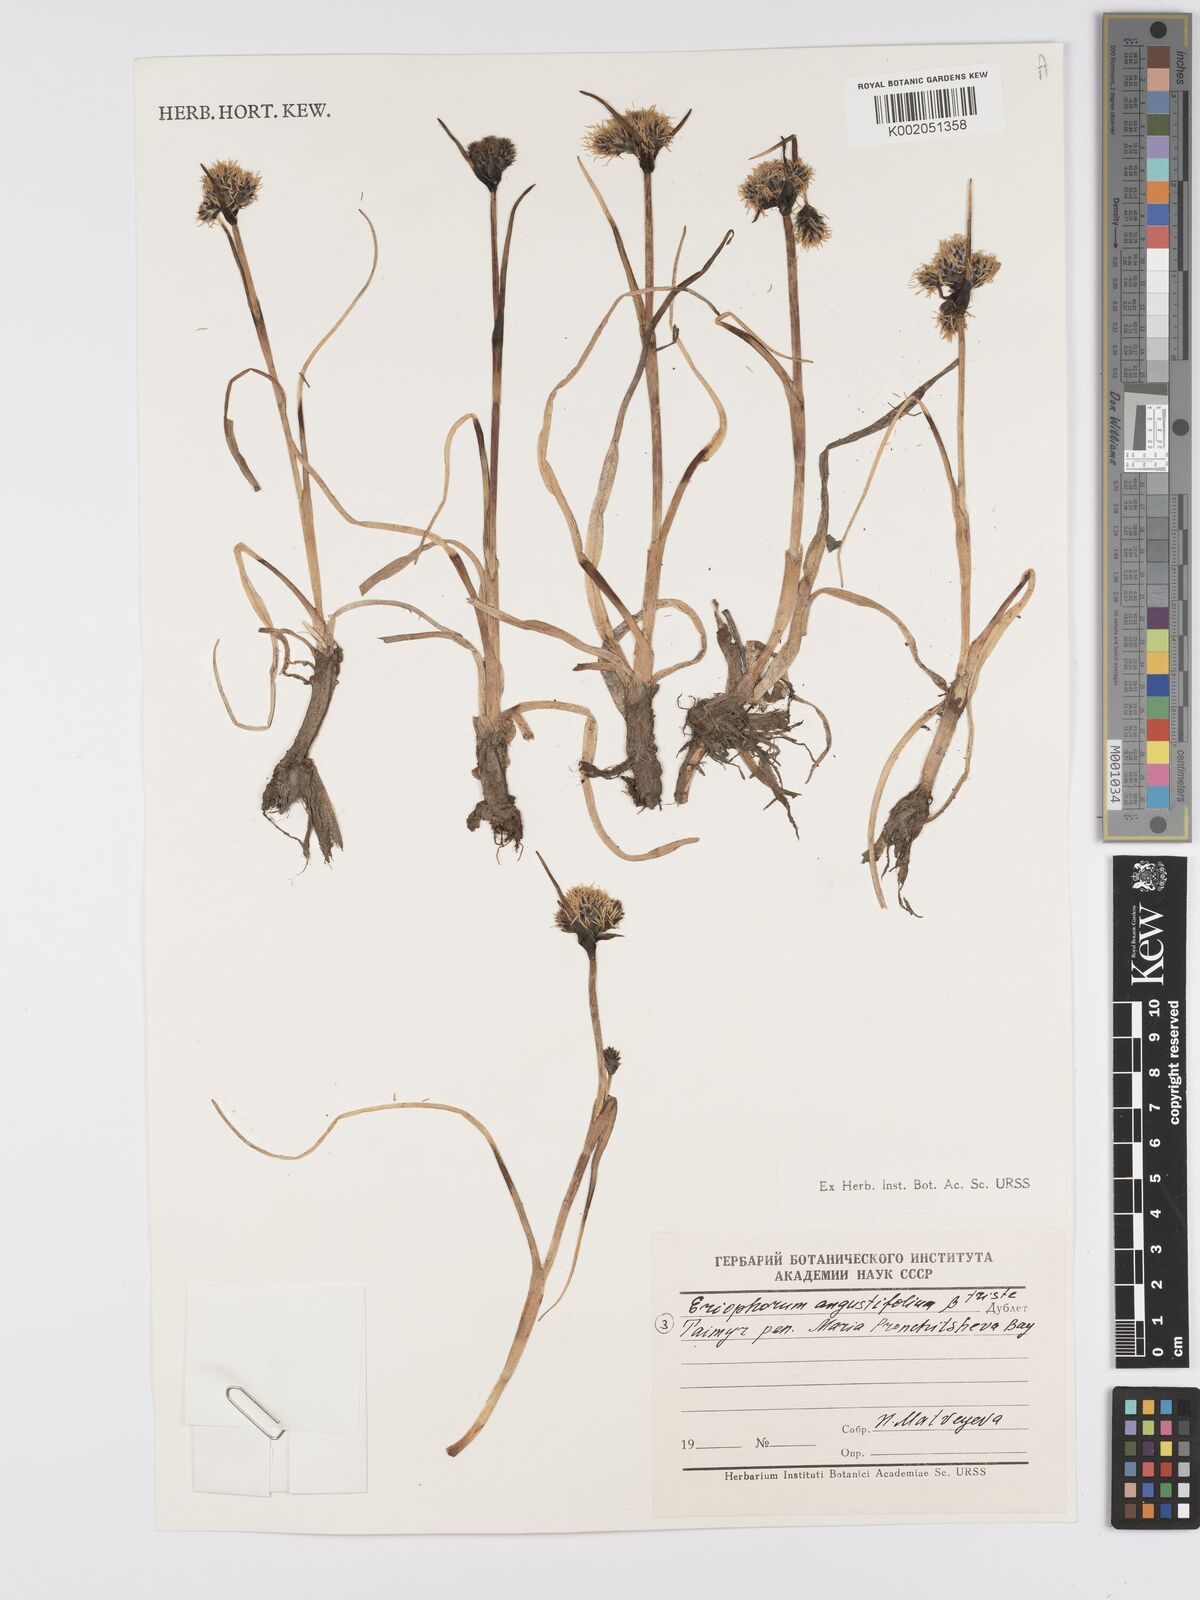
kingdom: Plantae
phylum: Tracheophyta
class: Liliopsida
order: Poales
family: Cyperaceae
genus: Eriophorum
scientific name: Eriophorum angustifolium
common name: Common cottongrass
